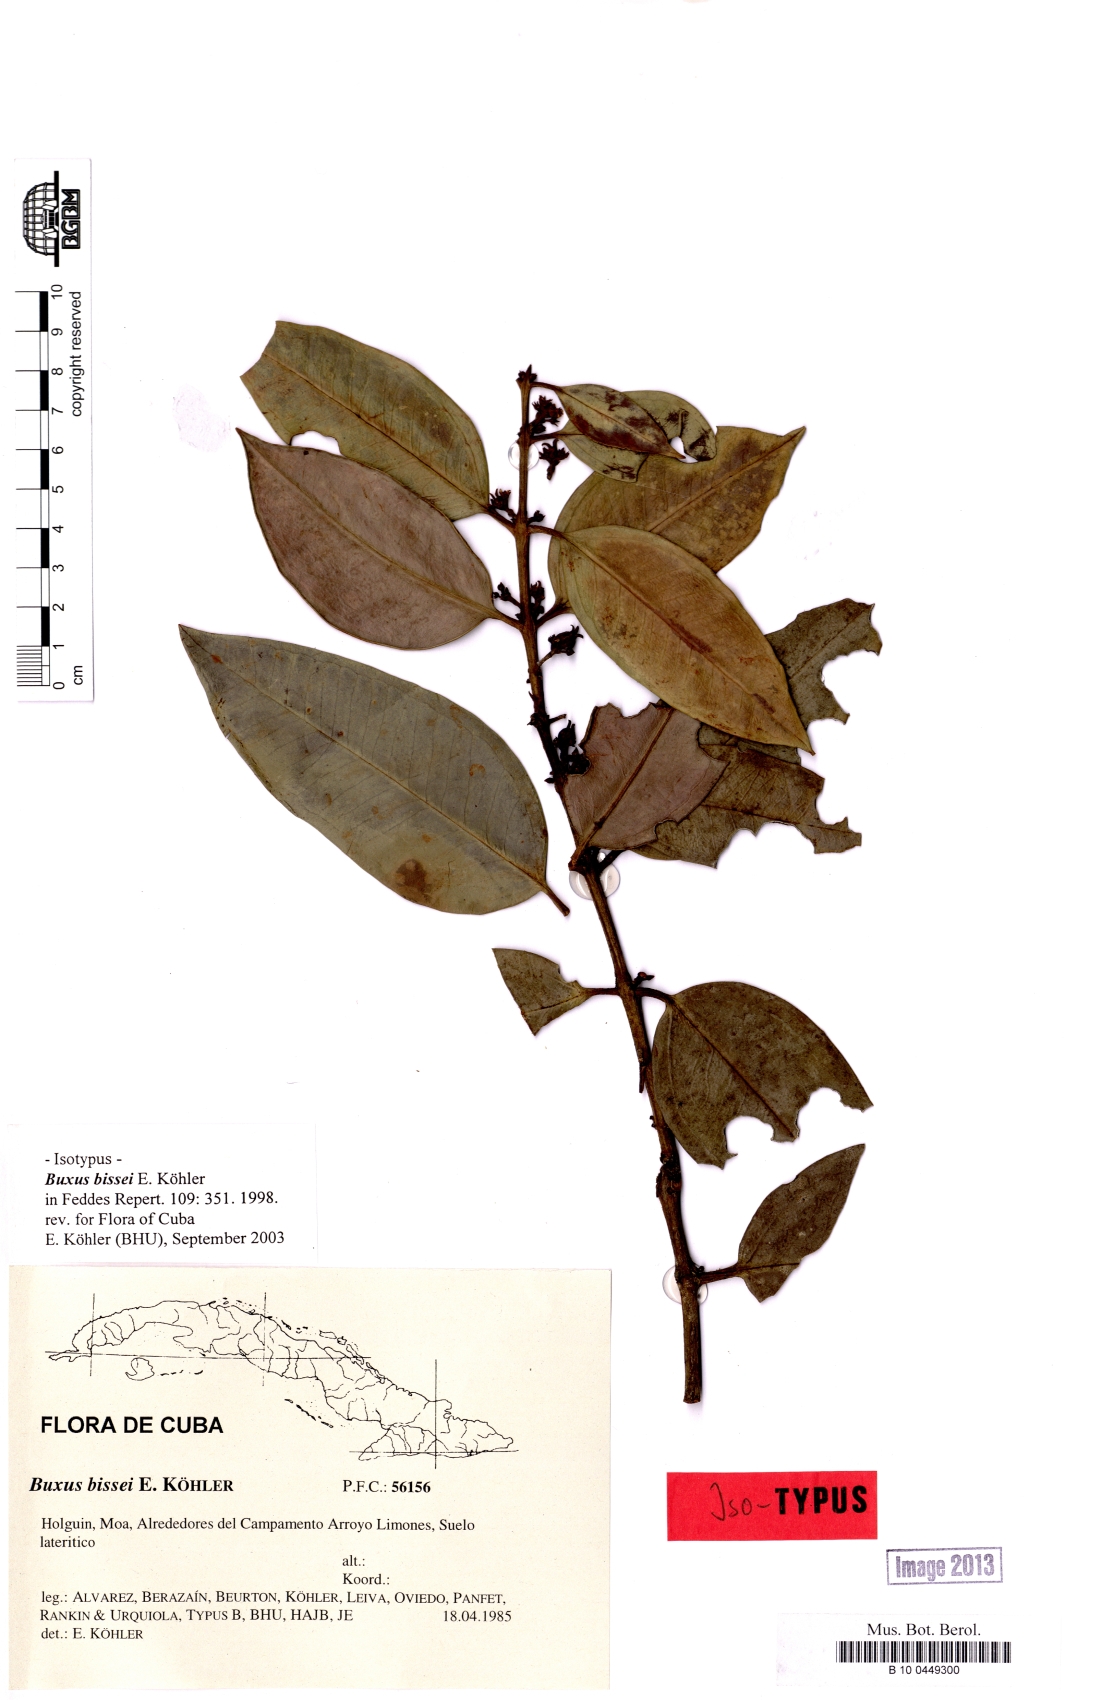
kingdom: Plantae
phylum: Tracheophyta
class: Magnoliopsida
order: Buxales
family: Buxaceae
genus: Buxus
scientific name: Buxus bissei
